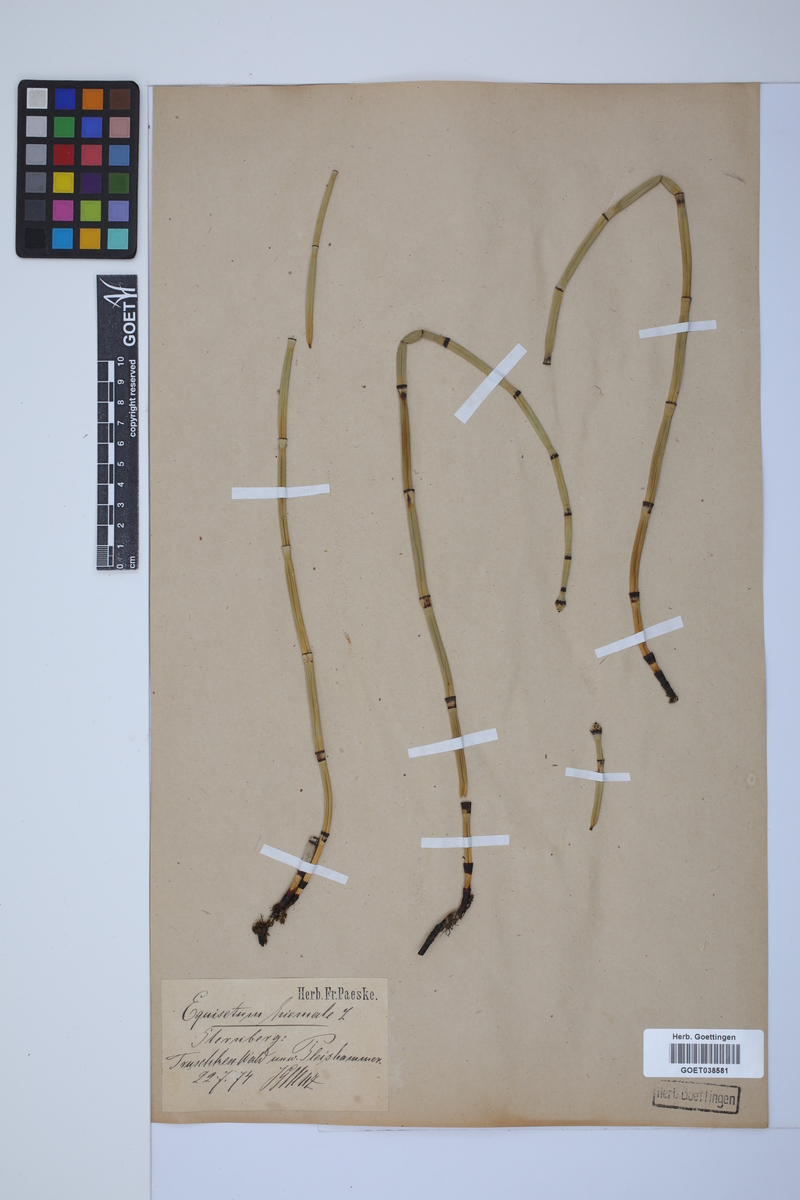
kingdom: Plantae
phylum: Tracheophyta
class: Polypodiopsida
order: Equisetales
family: Equisetaceae
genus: Equisetum
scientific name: Equisetum hyemale
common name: Rough horsetail
